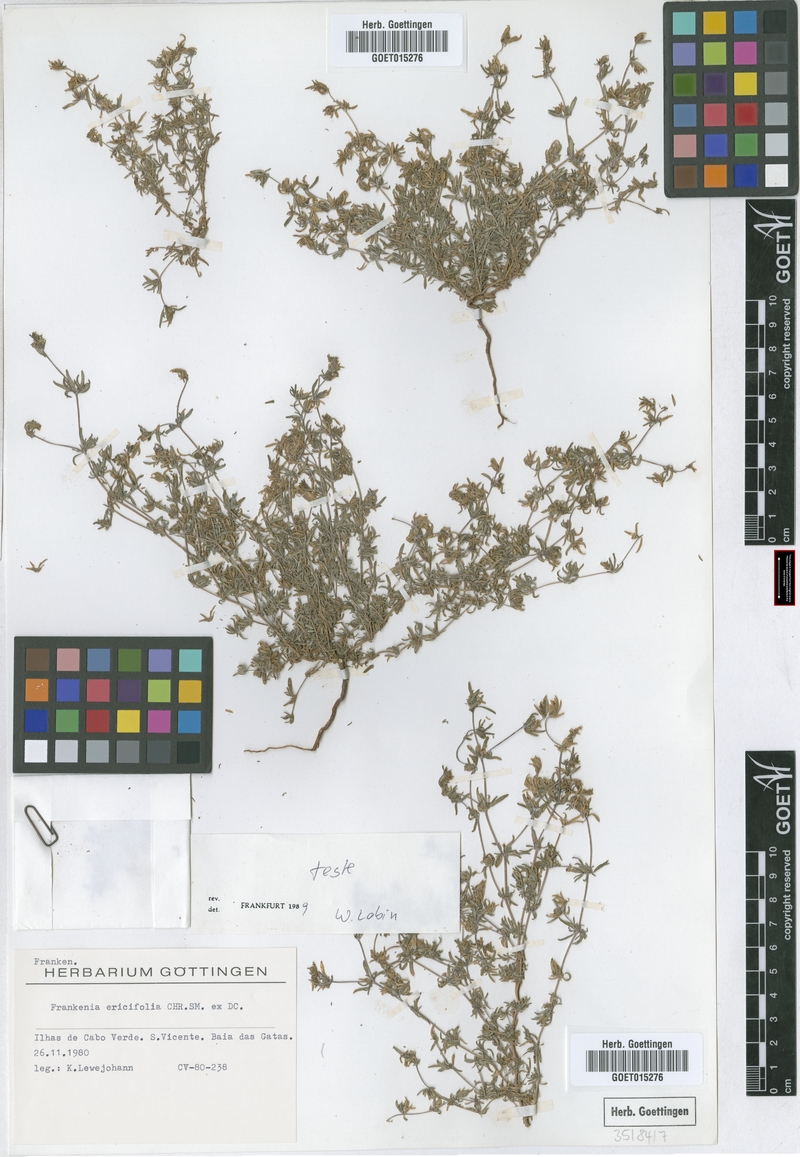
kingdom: Plantae
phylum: Tracheophyta
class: Magnoliopsida
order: Caryophyllales
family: Frankeniaceae
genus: Frankenia
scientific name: Frankenia ericifolia
